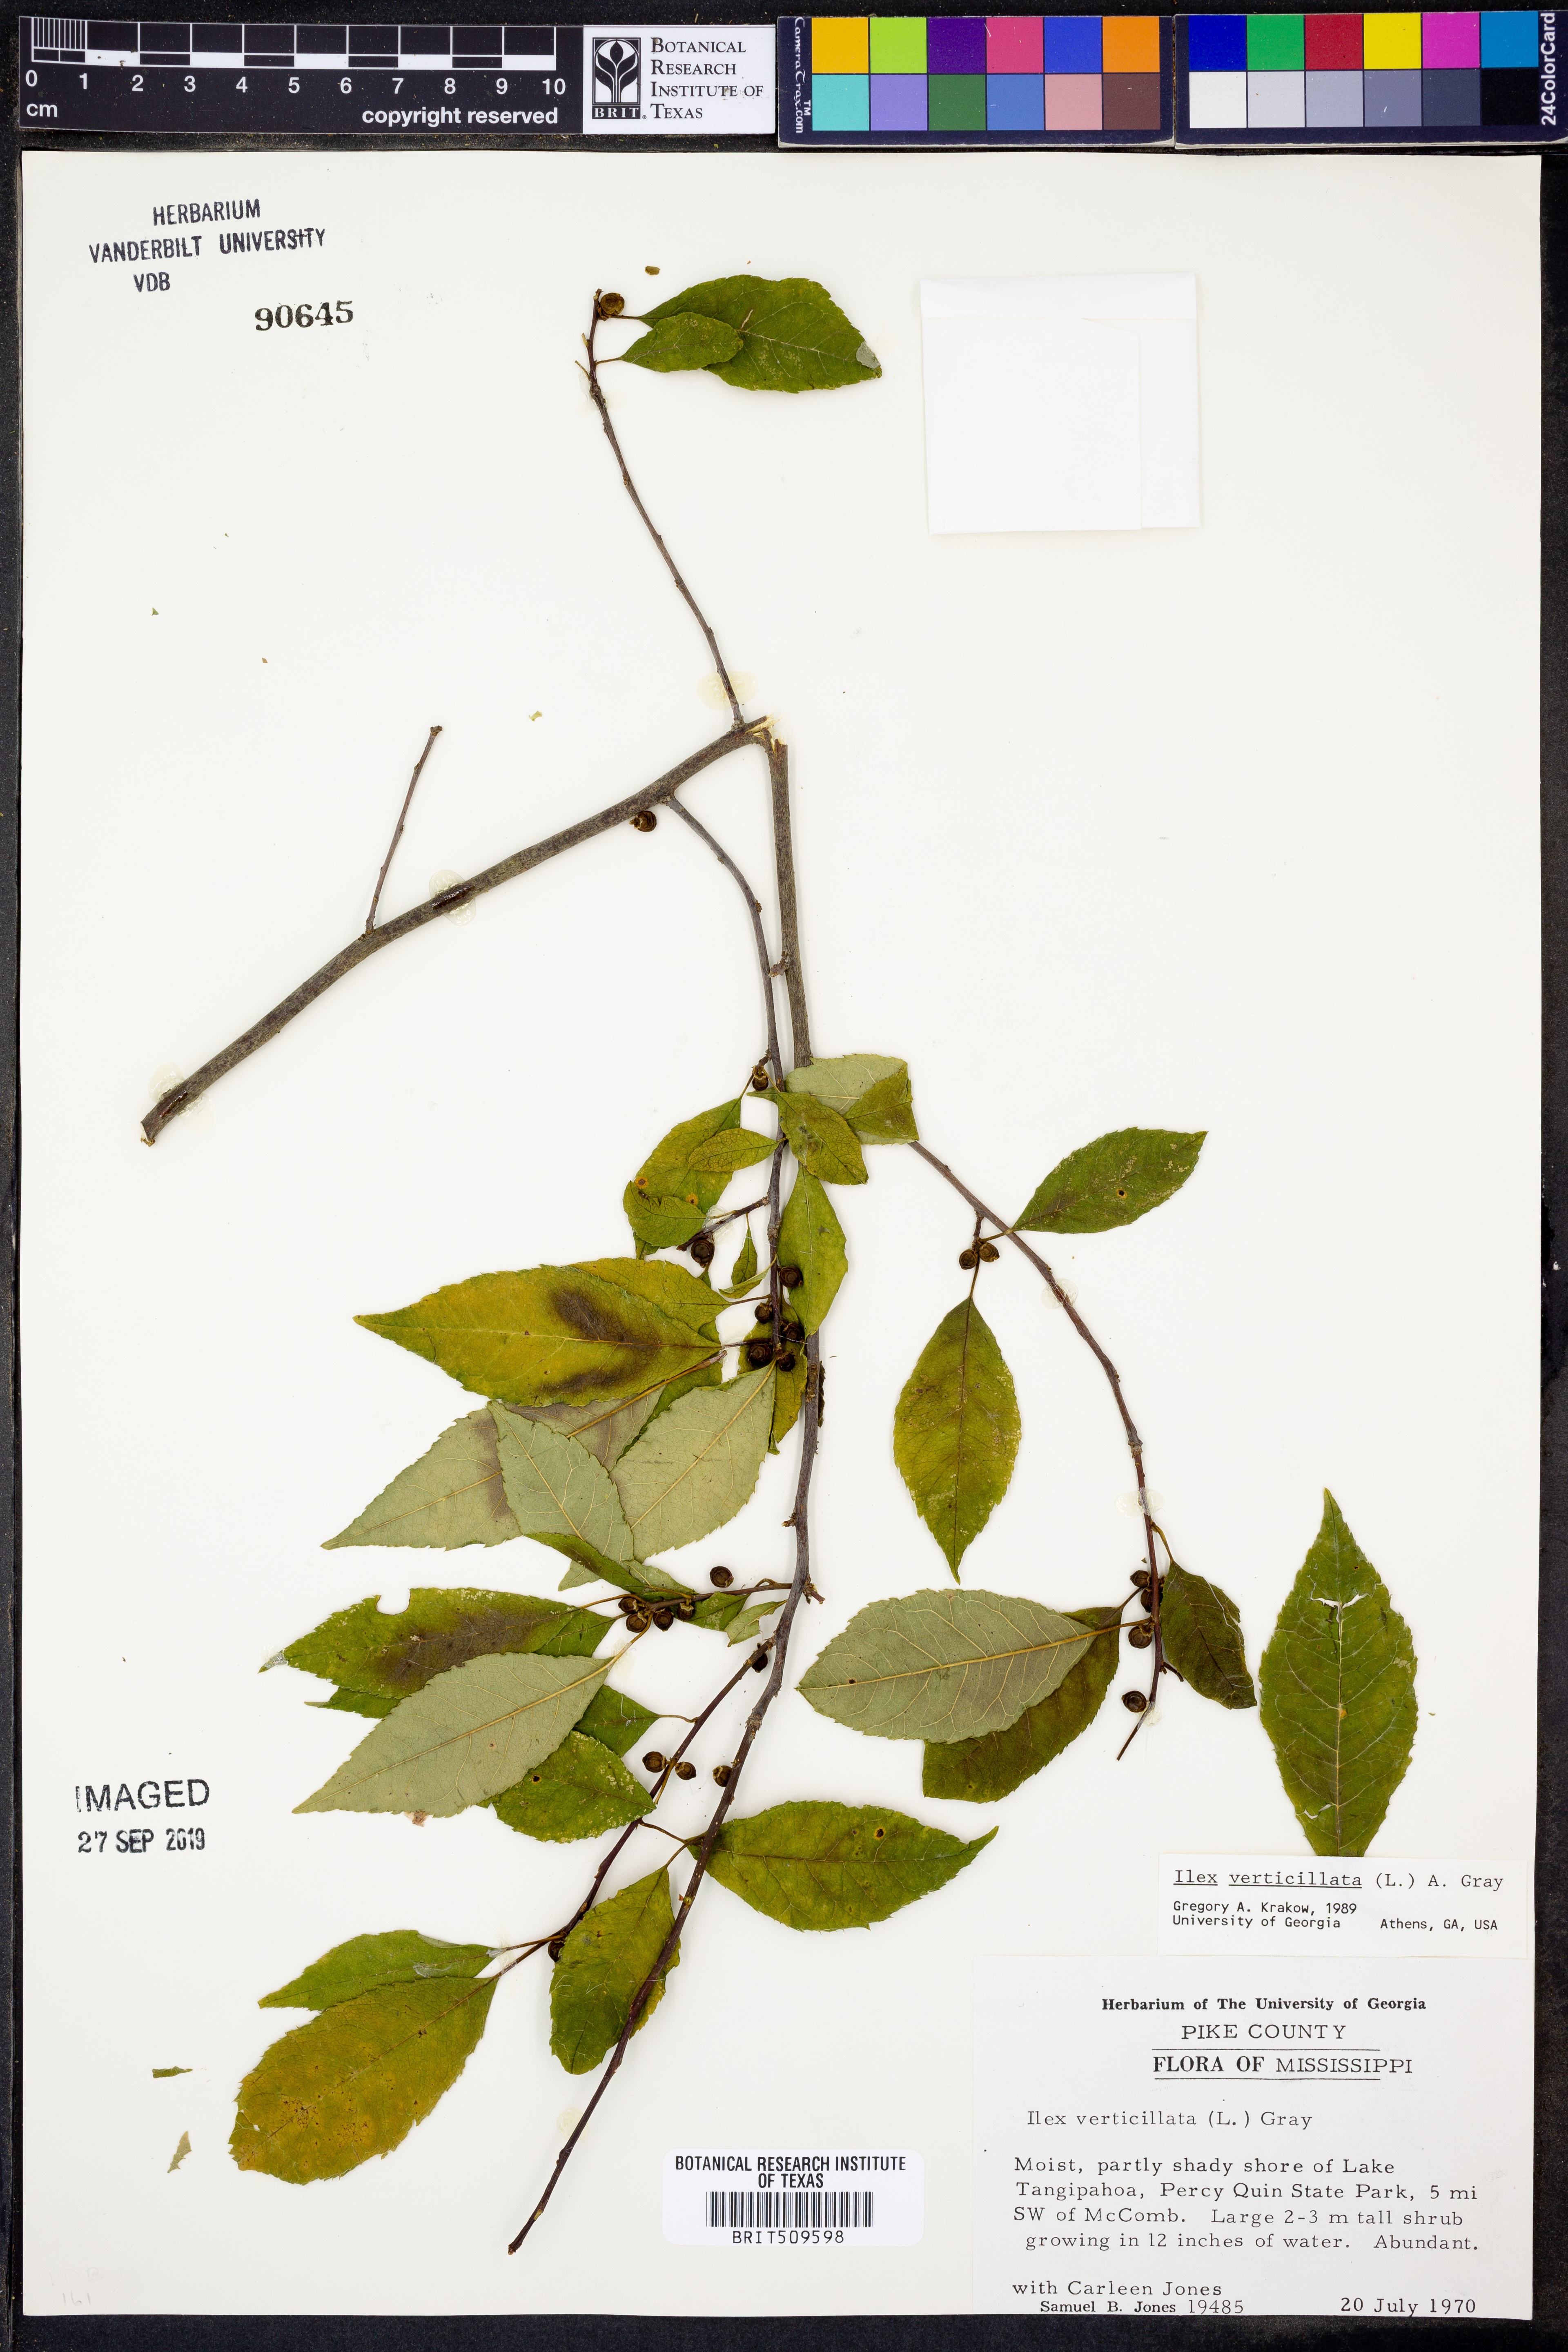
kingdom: Plantae
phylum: Tracheophyta
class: Magnoliopsida
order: Aquifoliales
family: Aquifoliaceae
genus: Ilex
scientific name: Ilex verticillata
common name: Virginia winterberry
